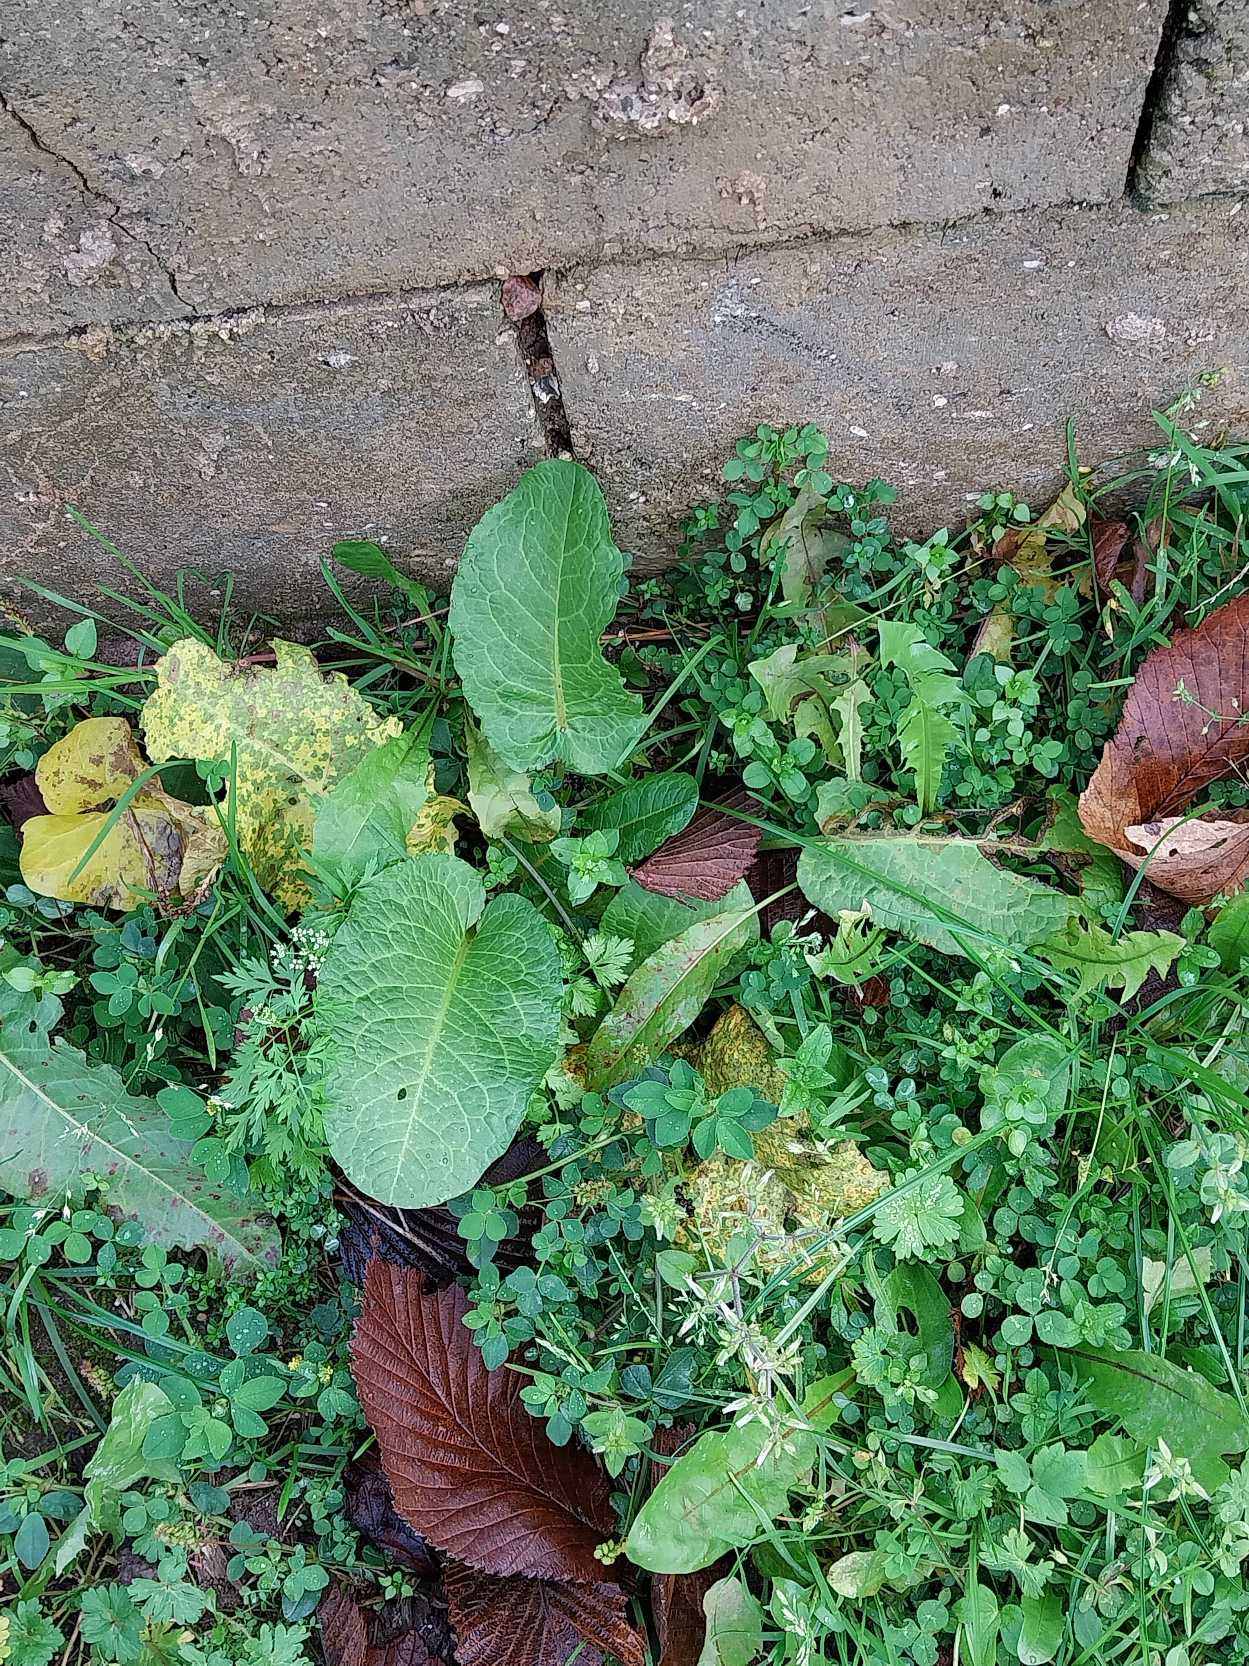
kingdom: Plantae
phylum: Tracheophyta
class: Magnoliopsida
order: Caryophyllales
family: Polygonaceae
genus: Rumex
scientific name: Rumex obtusifolius
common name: Butbladet skræppe
